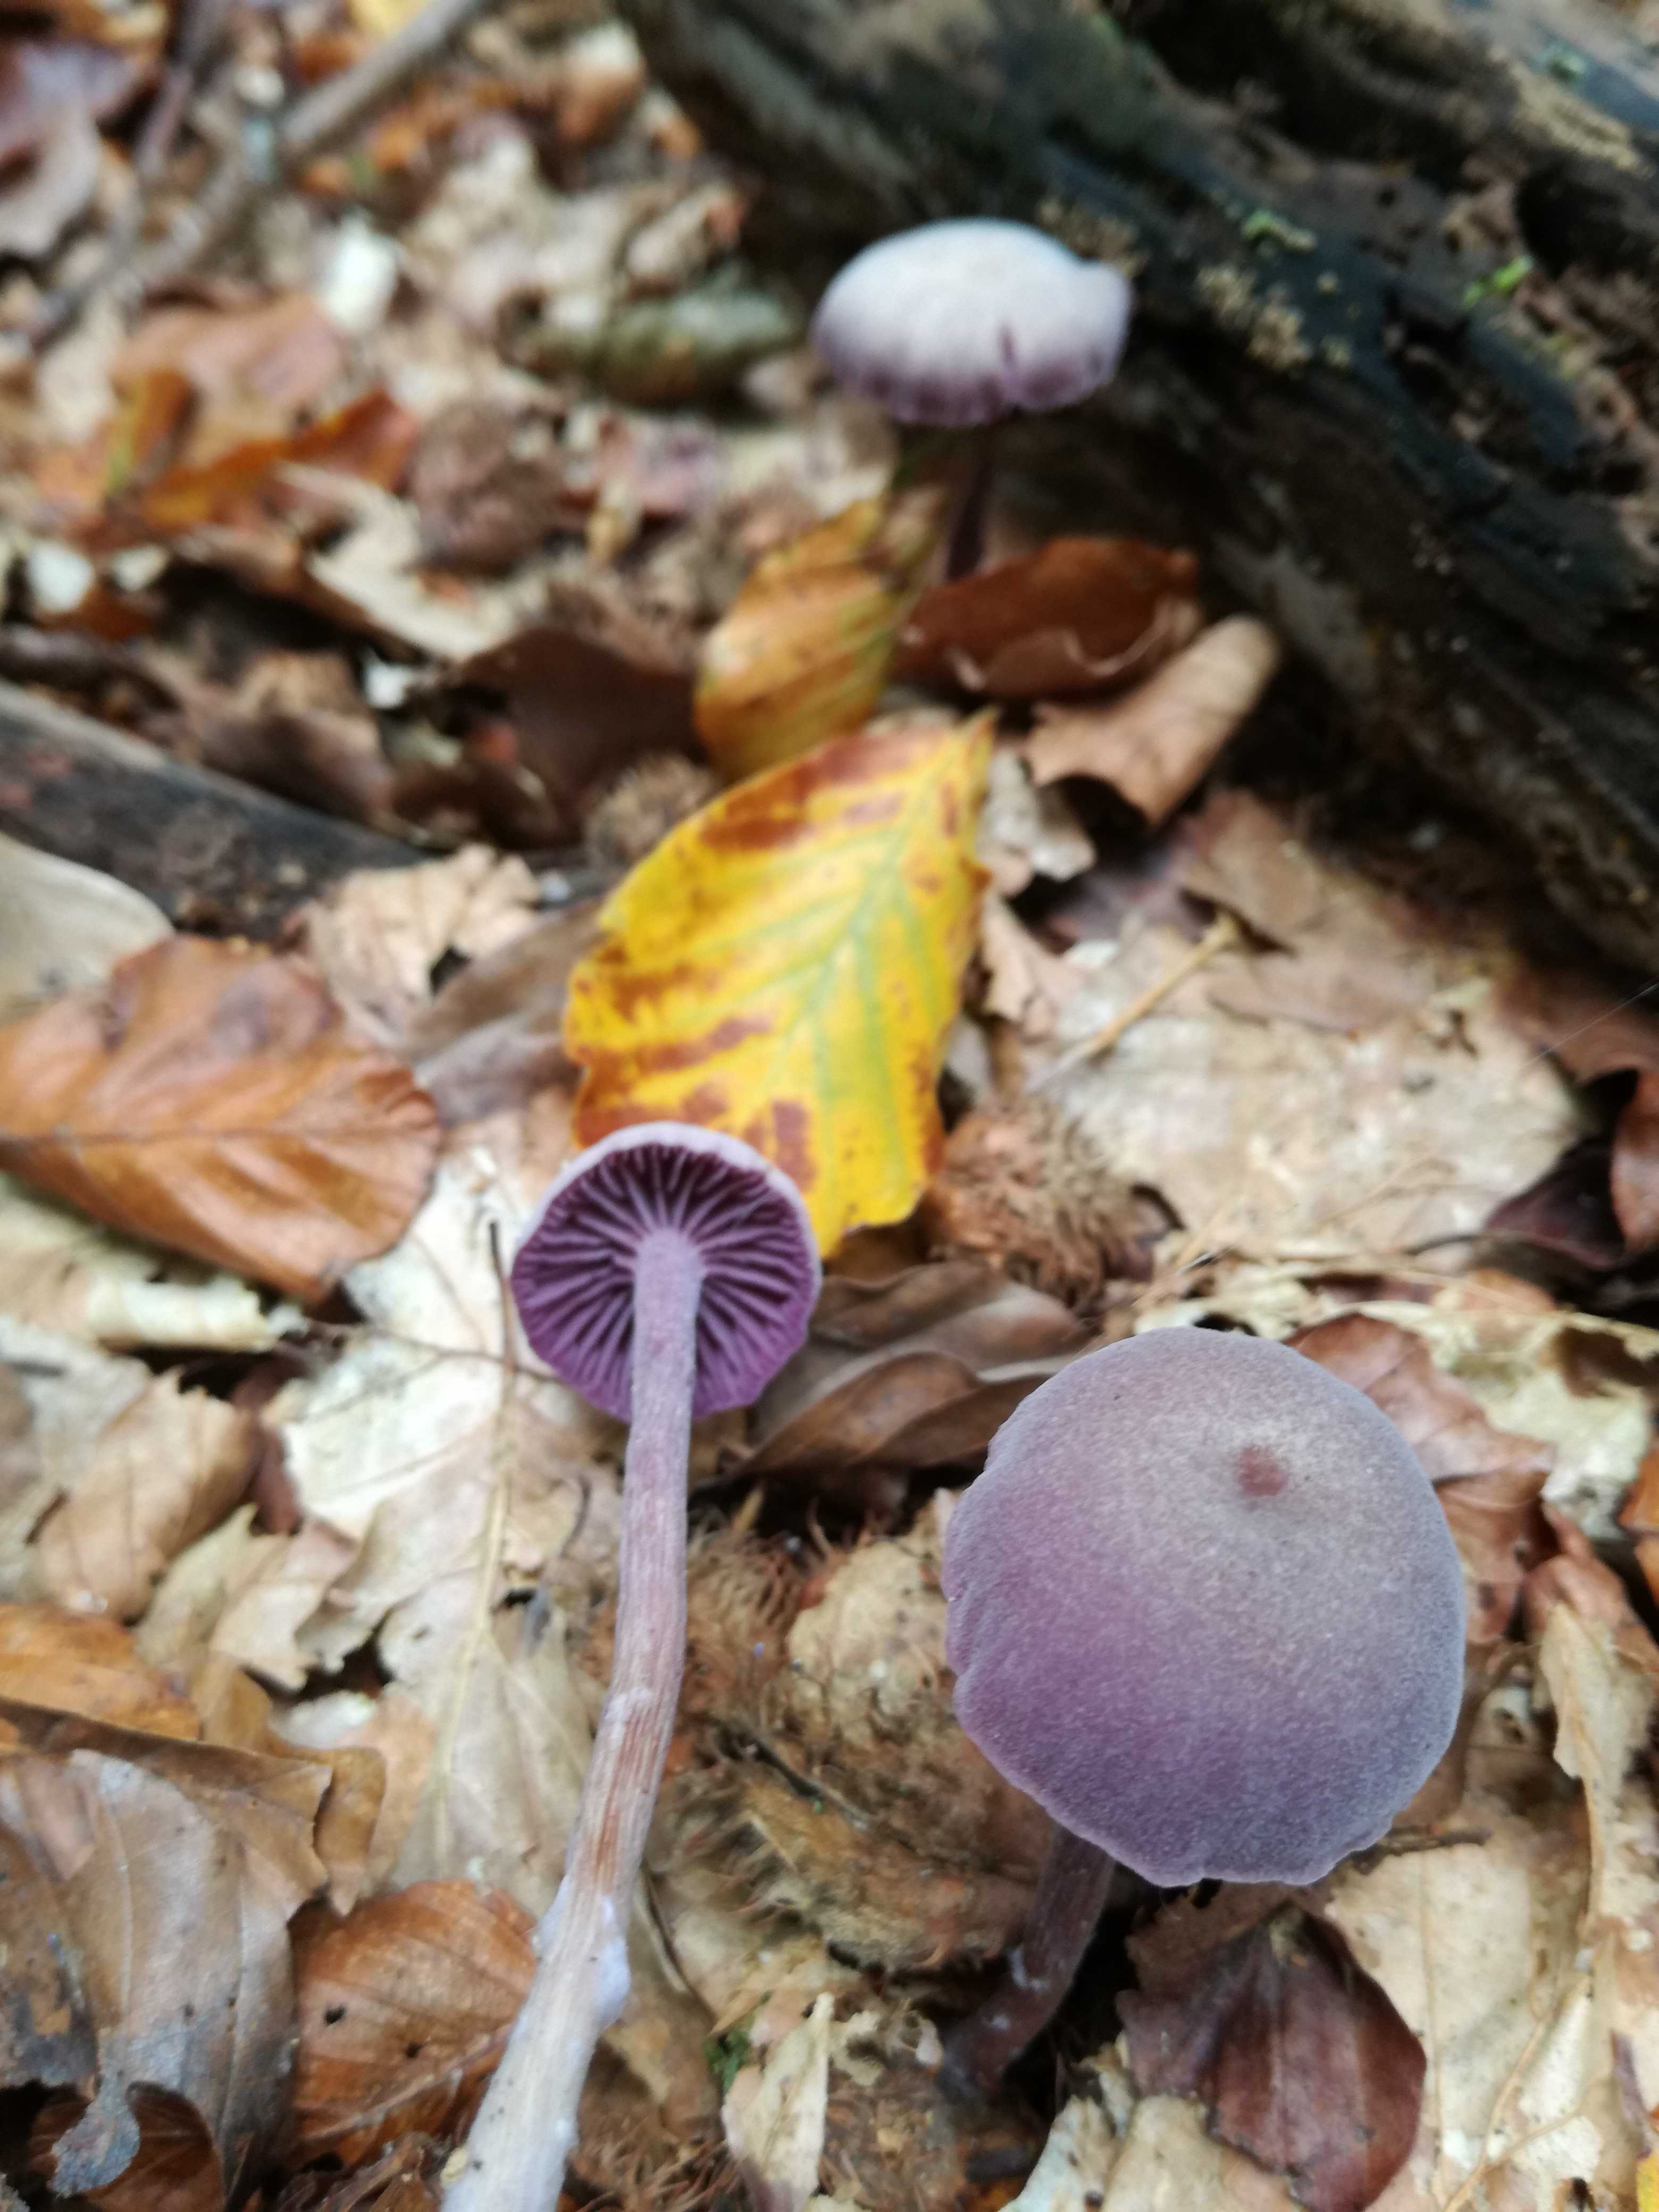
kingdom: Fungi
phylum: Basidiomycota
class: Agaricomycetes
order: Agaricales
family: Hydnangiaceae
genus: Laccaria
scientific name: Laccaria amethystina
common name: violet ametysthat
